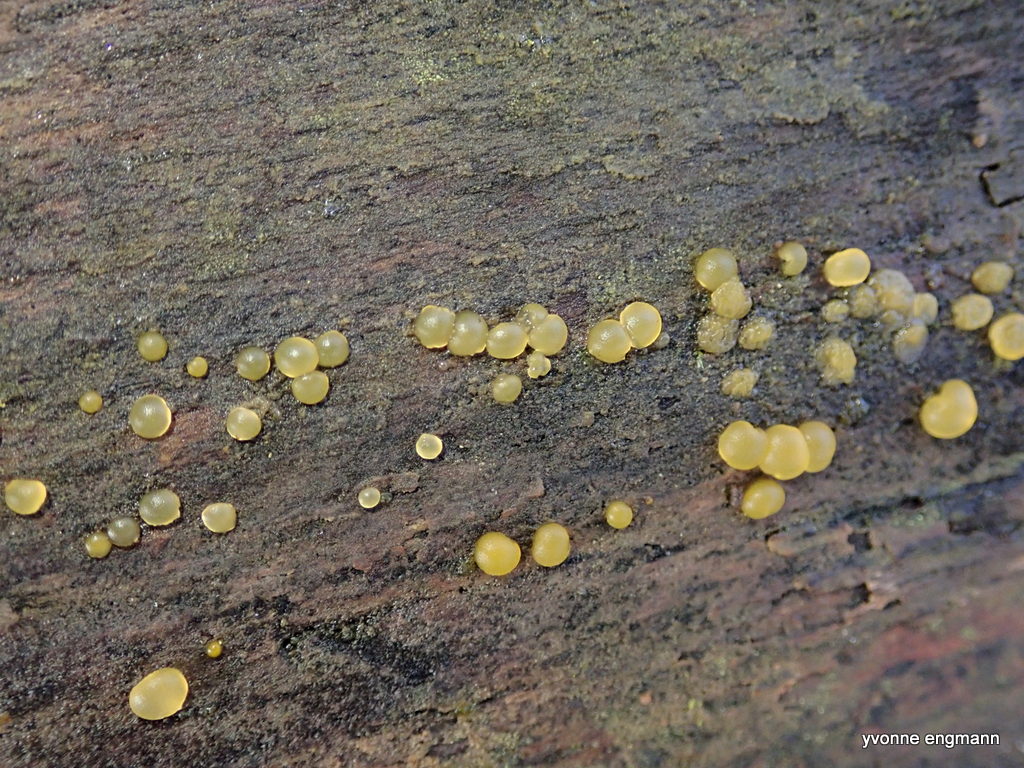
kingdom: Fungi
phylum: Ascomycota
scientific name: Ascomycota
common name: sæksvampe
